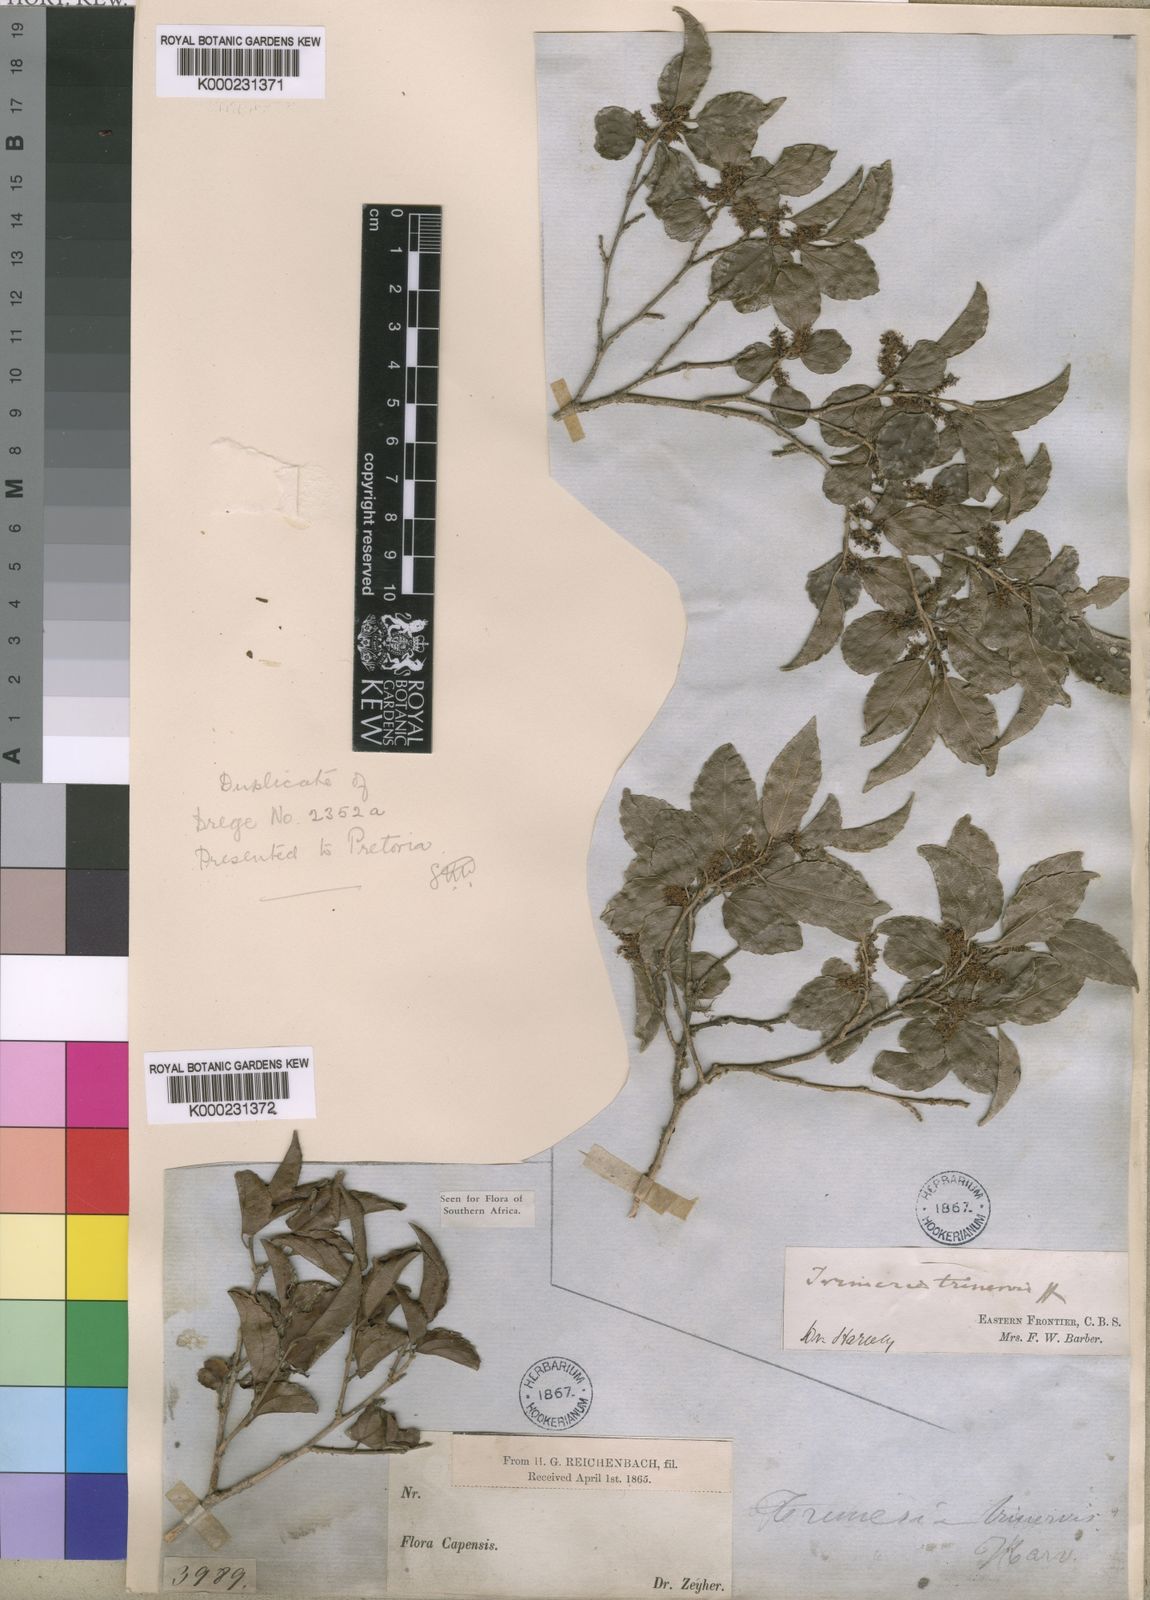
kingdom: Plantae
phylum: Tracheophyta
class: Magnoliopsida
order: Malpighiales
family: Salicaceae
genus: Trimeria
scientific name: Trimeria trinervis
